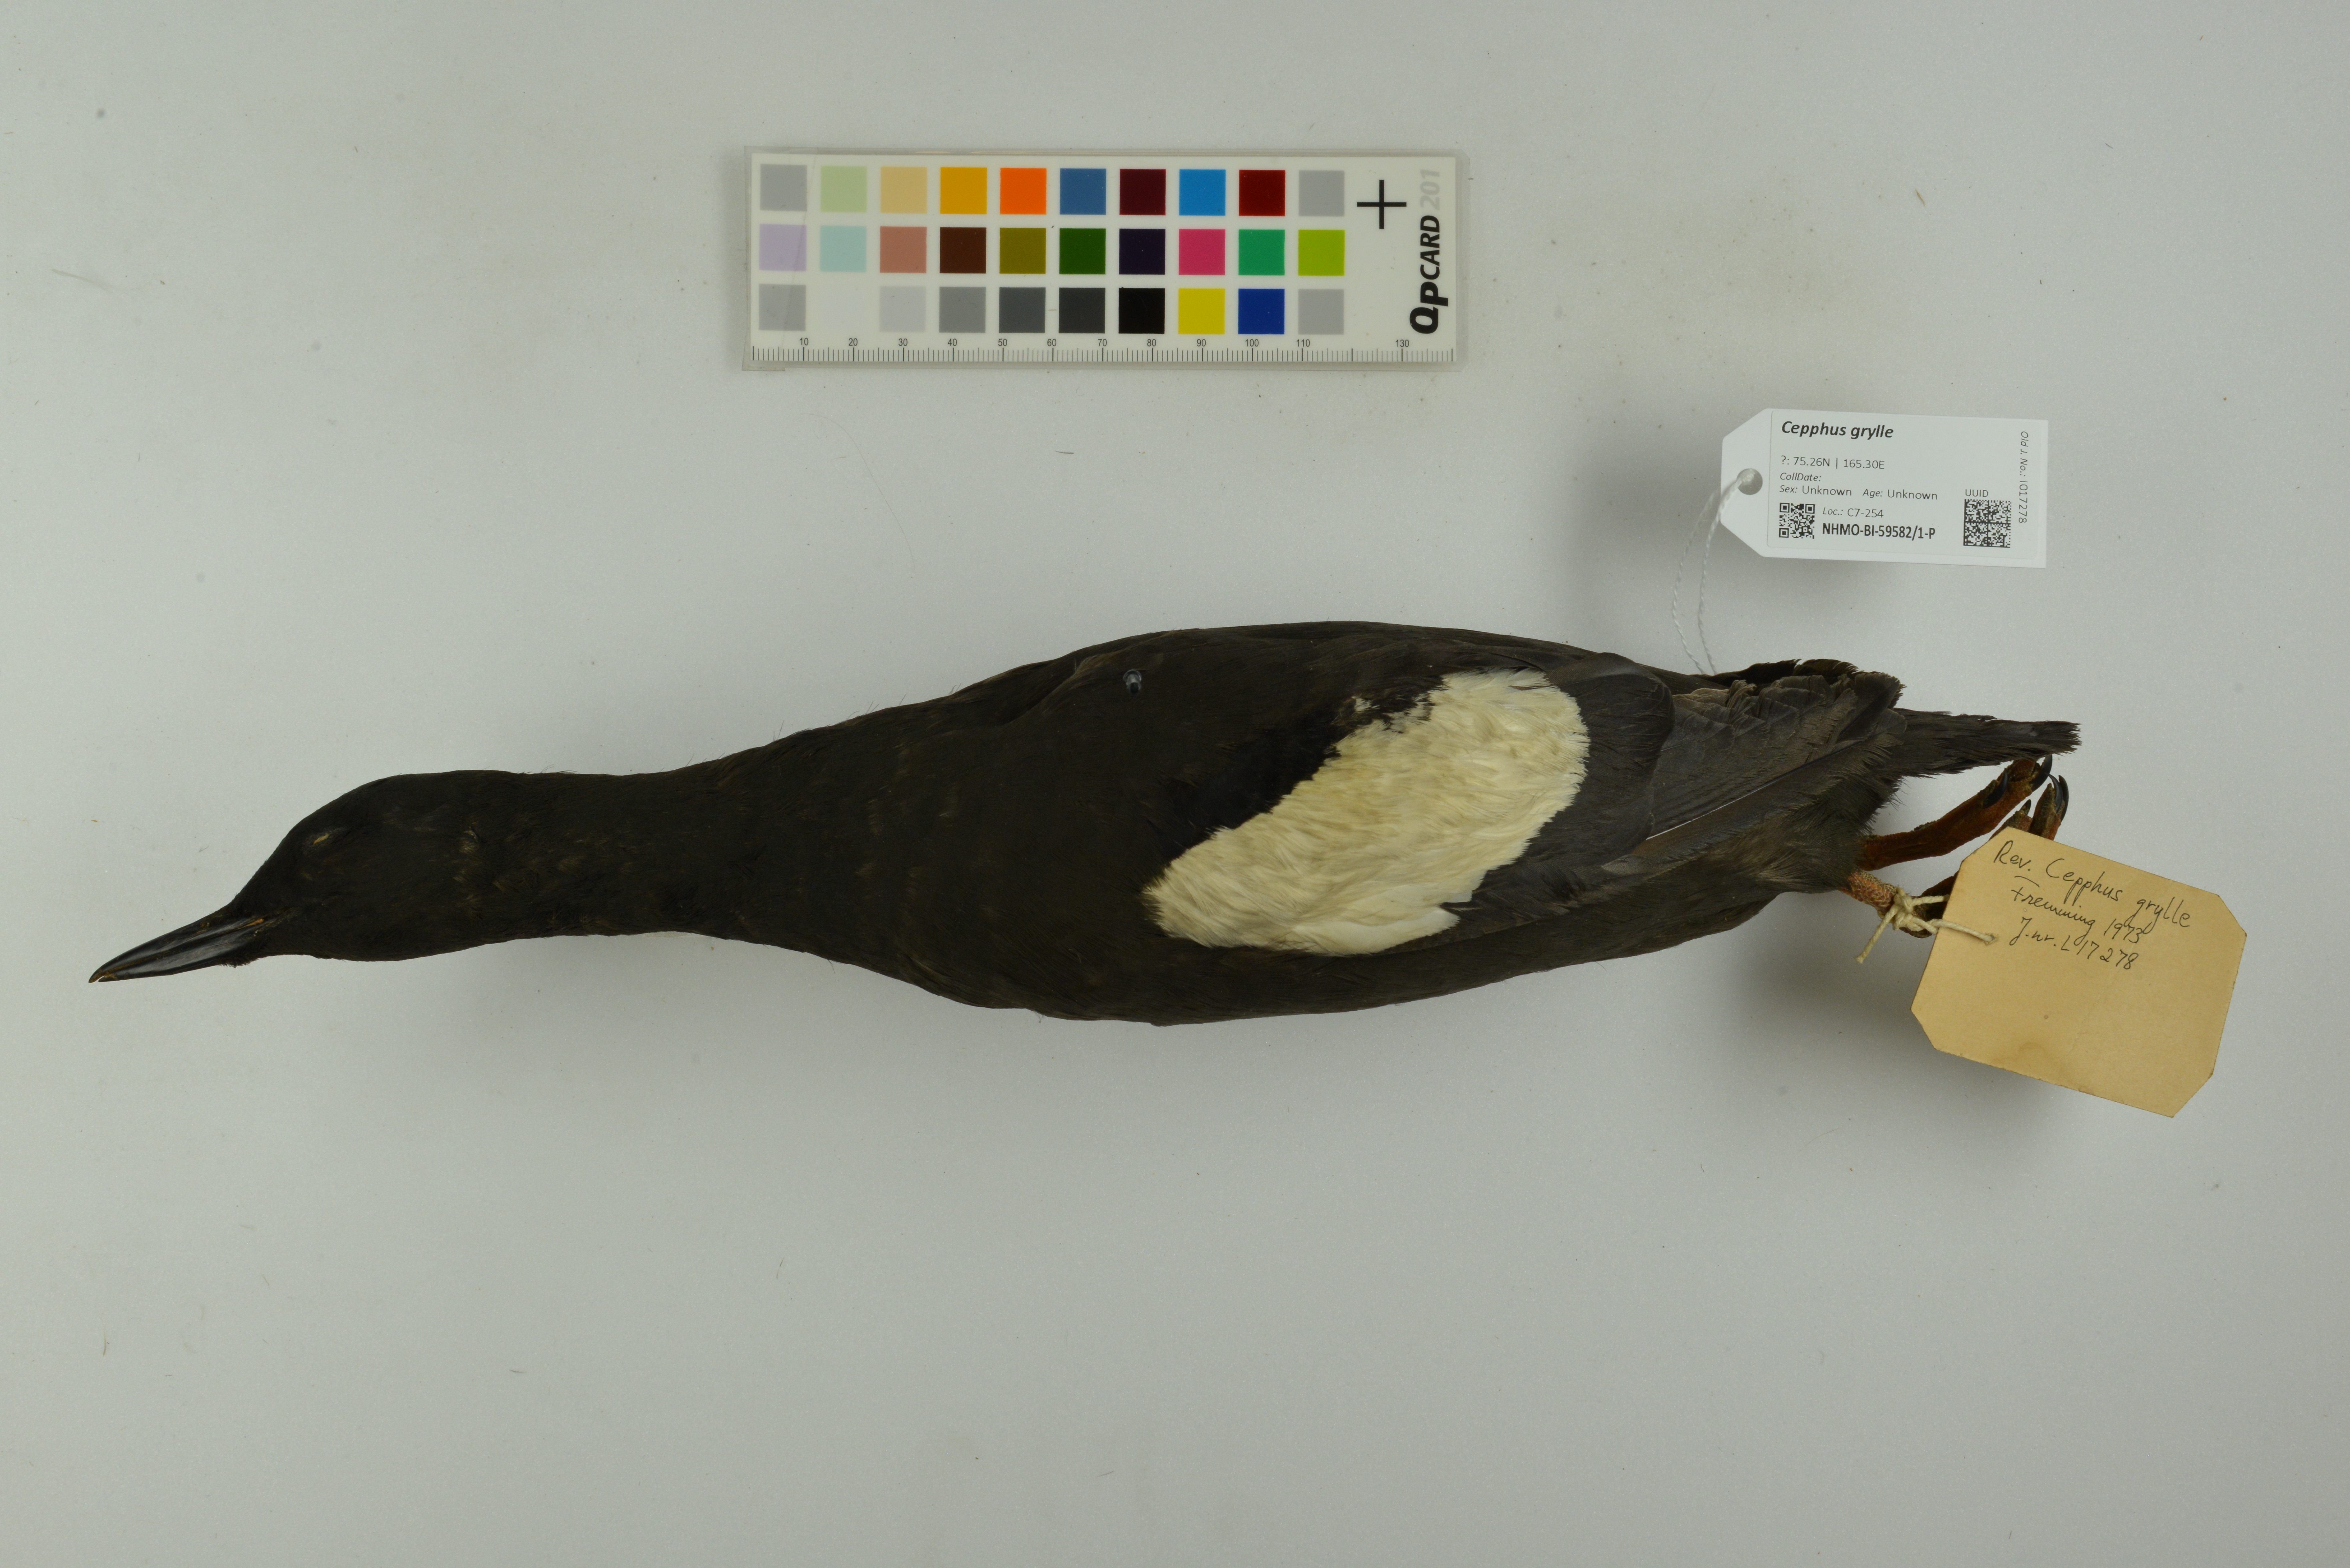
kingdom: Animalia
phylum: Chordata
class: Aves
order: Charadriiformes
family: Alcidae
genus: Cepphus
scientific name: Cepphus grylle
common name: Black guillemot
